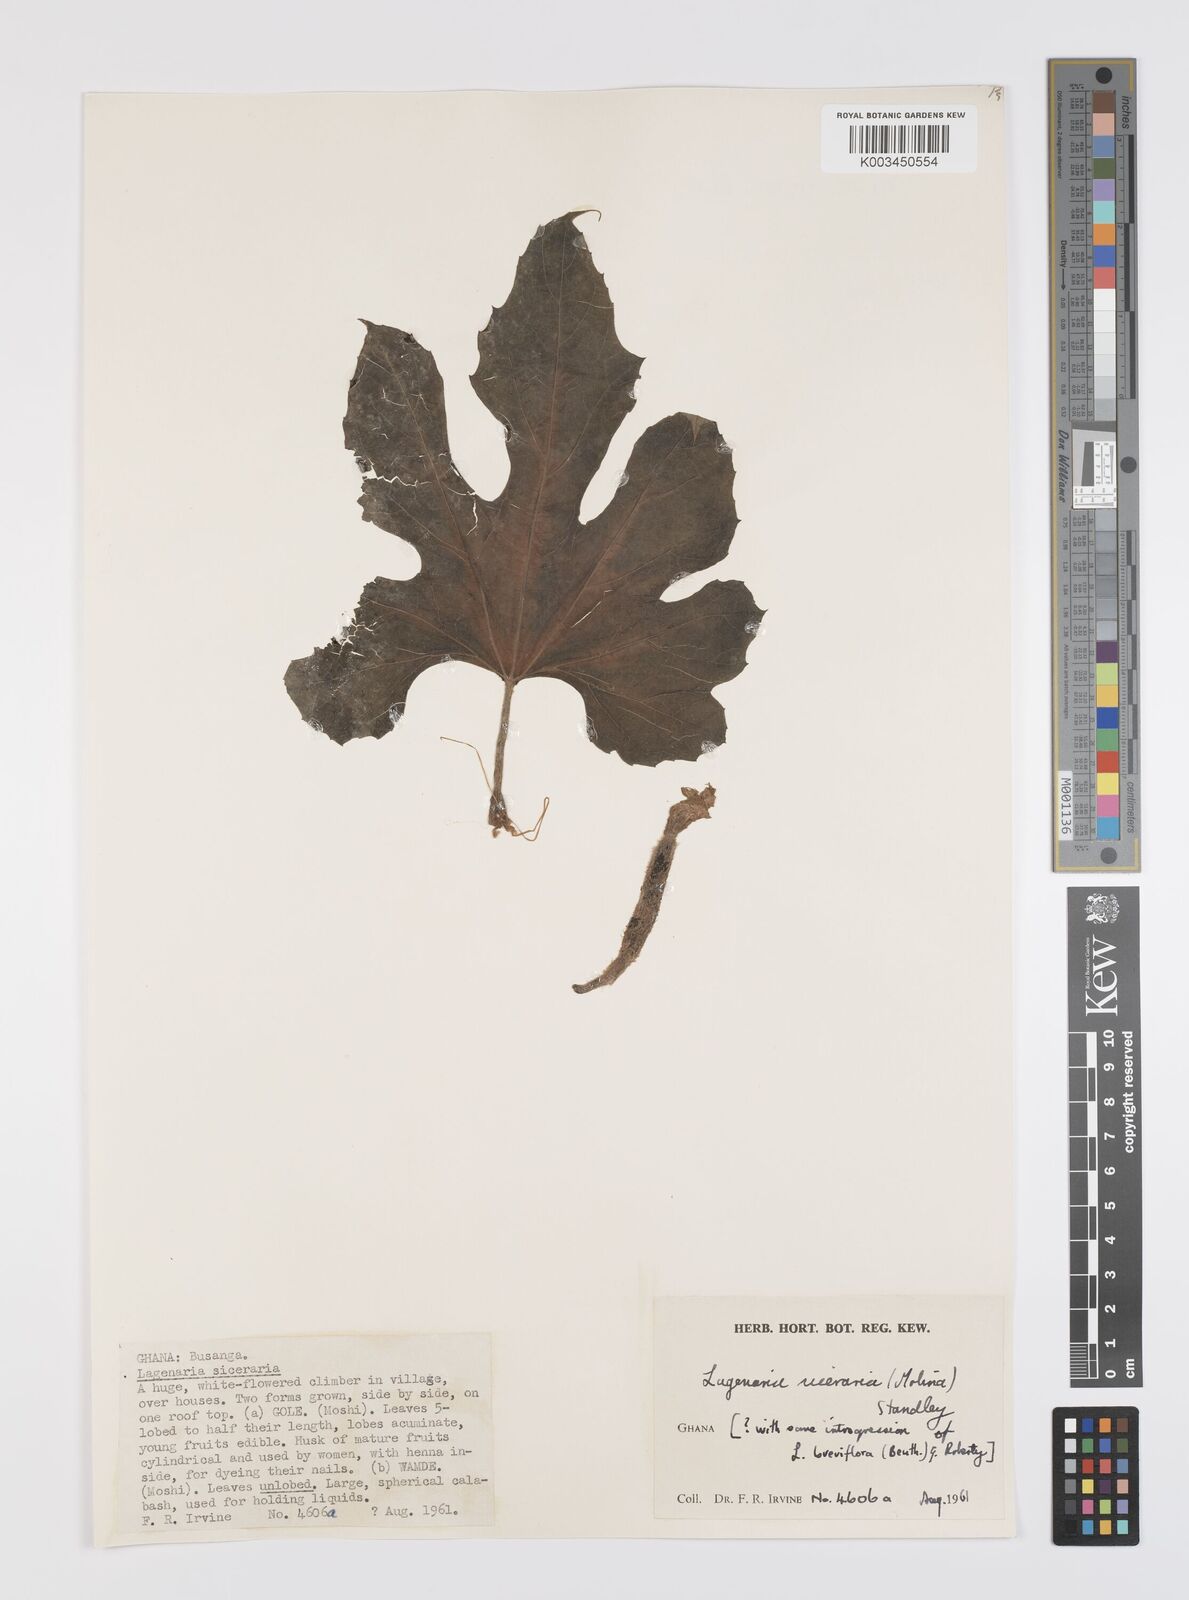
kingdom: Plantae
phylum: Tracheophyta
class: Magnoliopsida
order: Cucurbitales
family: Cucurbitaceae
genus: Lagenaria
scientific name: Lagenaria siceraria
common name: Bottle gourd
